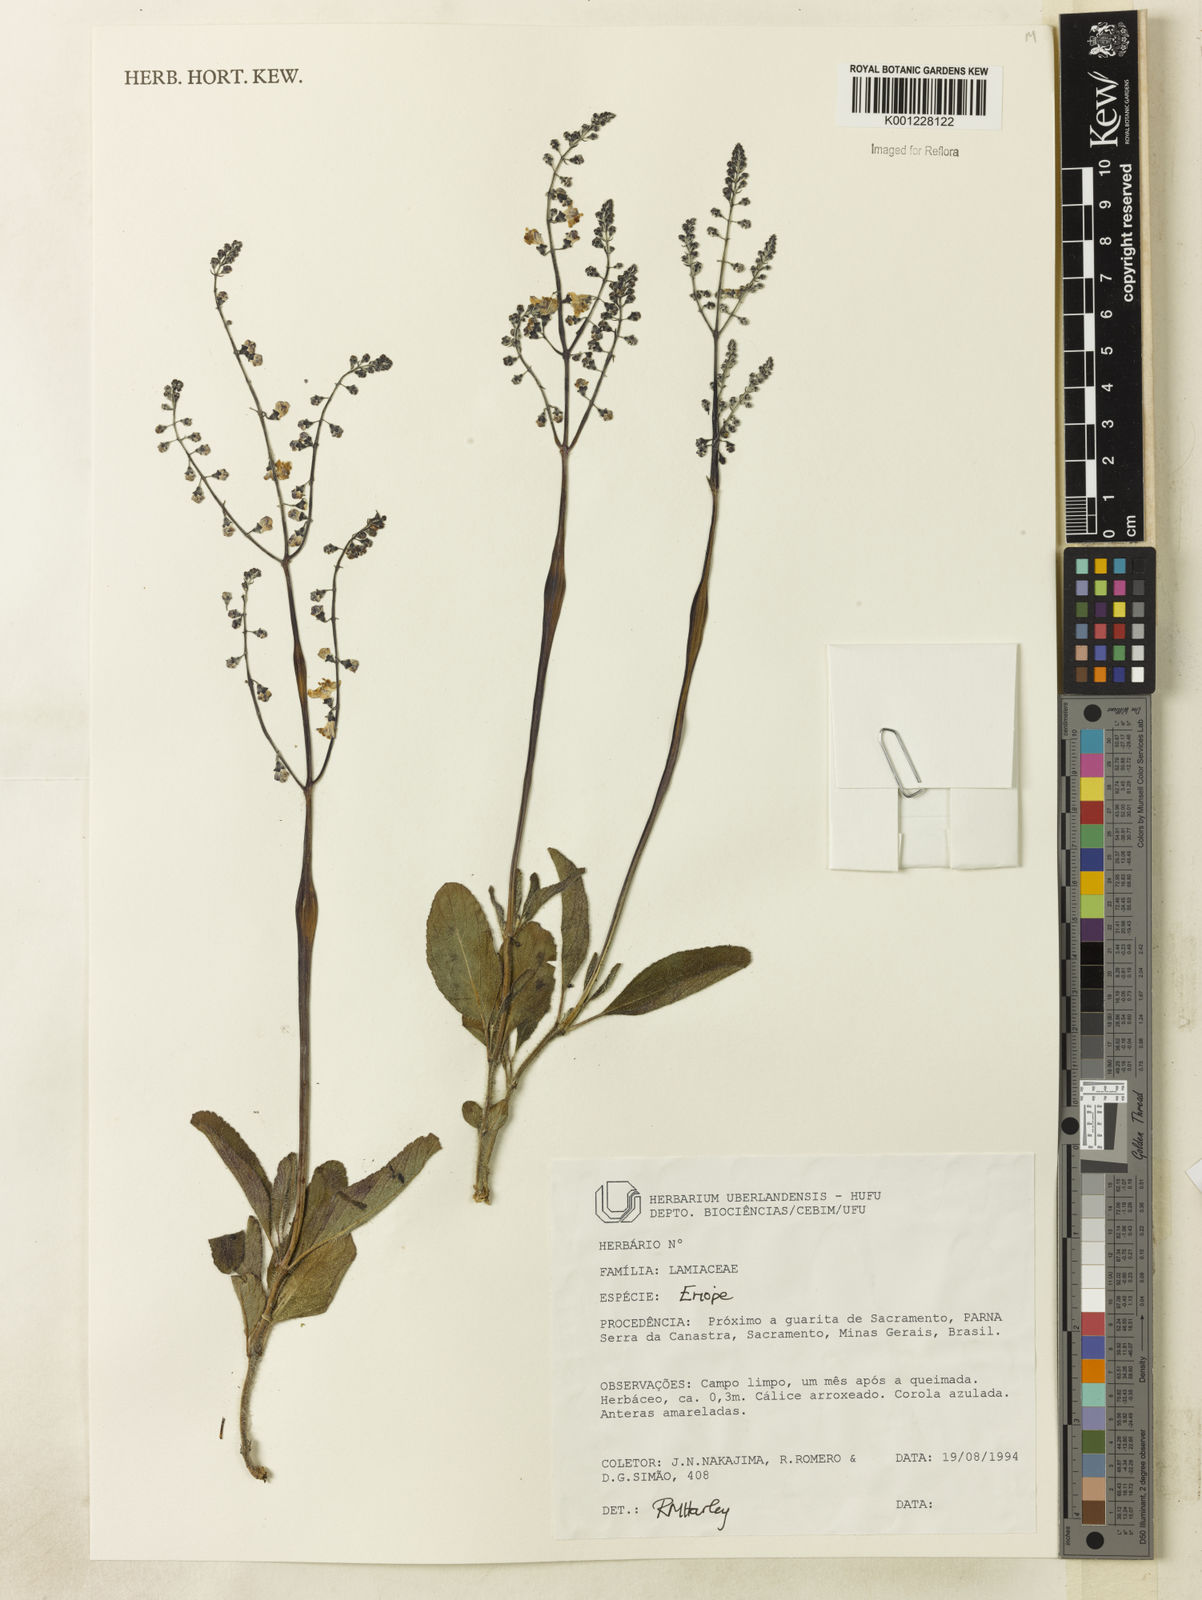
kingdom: Plantae
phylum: Tracheophyta
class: Magnoliopsida
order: Lamiales
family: Lamiaceae
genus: Eriope
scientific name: Eriope
